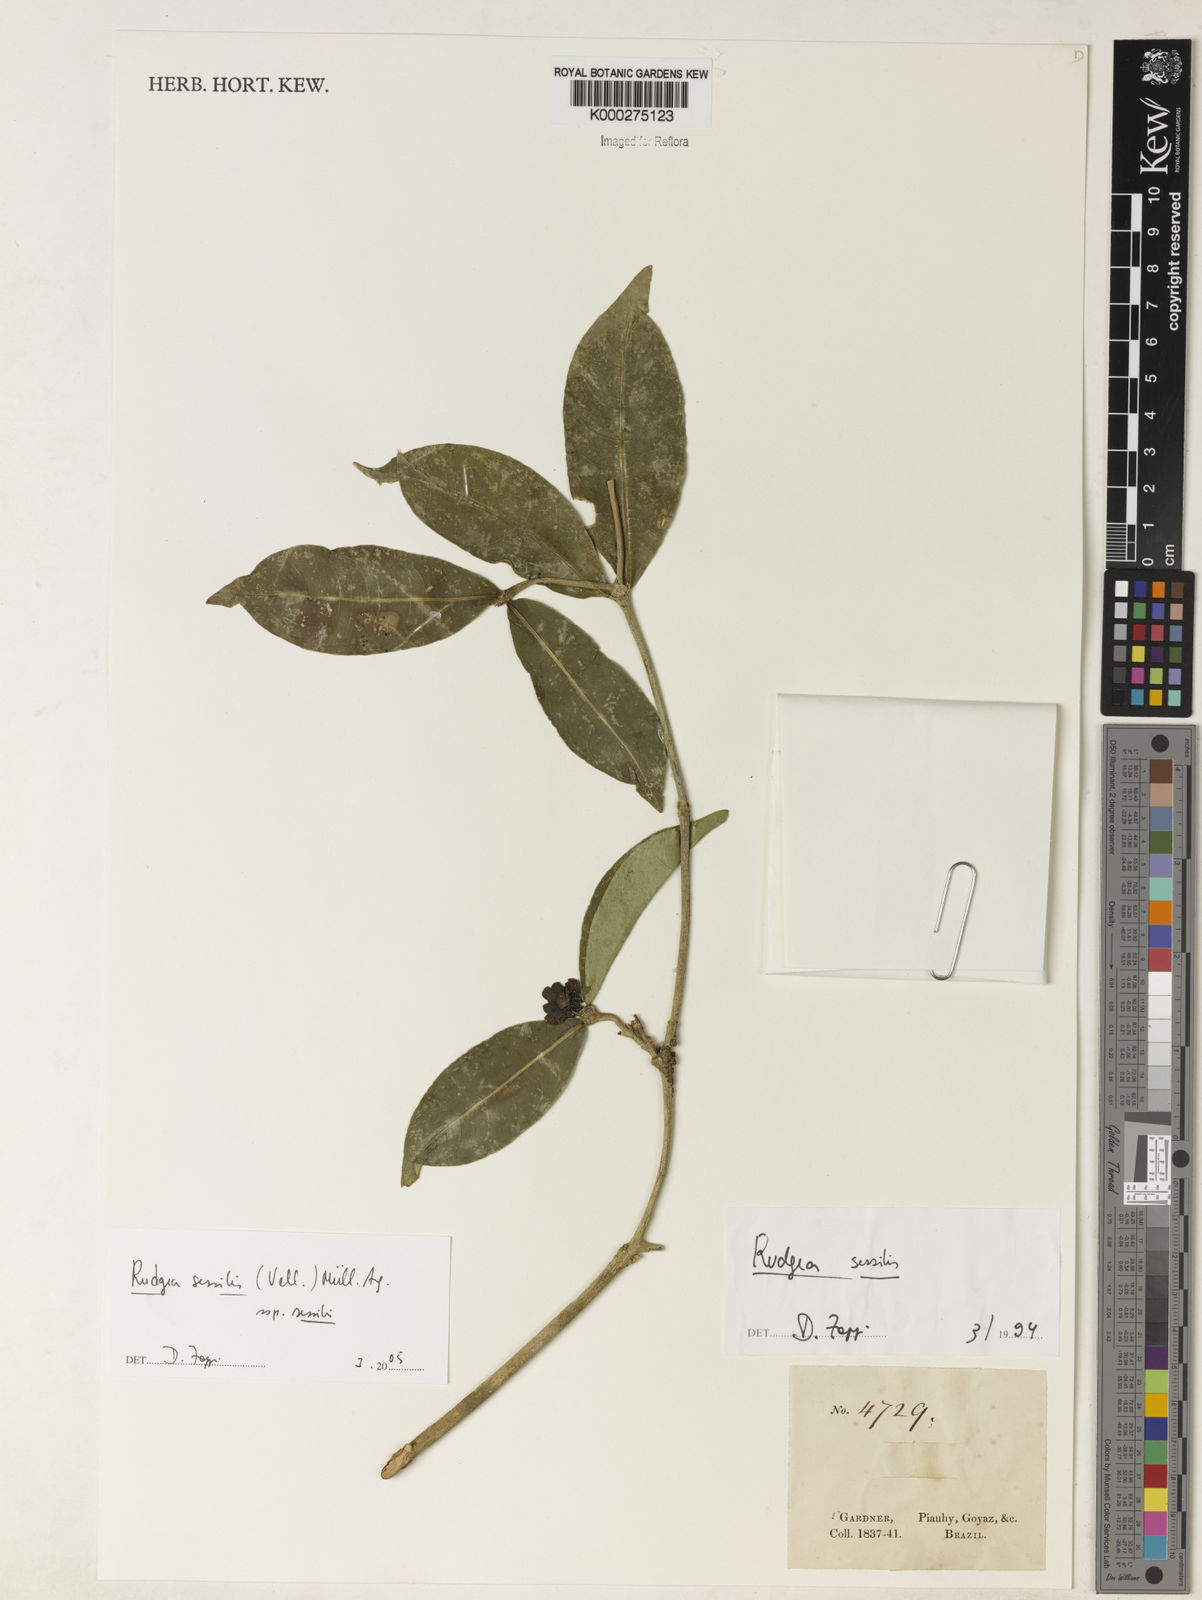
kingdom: Plantae
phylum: Tracheophyta
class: Magnoliopsida
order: Gentianales
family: Rubiaceae
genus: Rudgea
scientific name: Rudgea sessilis
